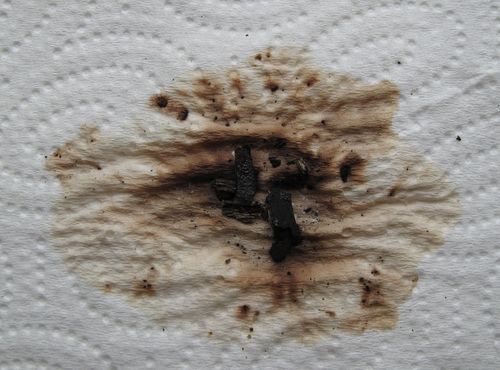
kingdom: Fungi
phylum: Ascomycota
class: Sordariomycetes
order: Xylariales
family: Hypoxylaceae
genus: Hypoxylon
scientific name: Hypoxylon rubiginosum
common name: rustfarvet kulbær
